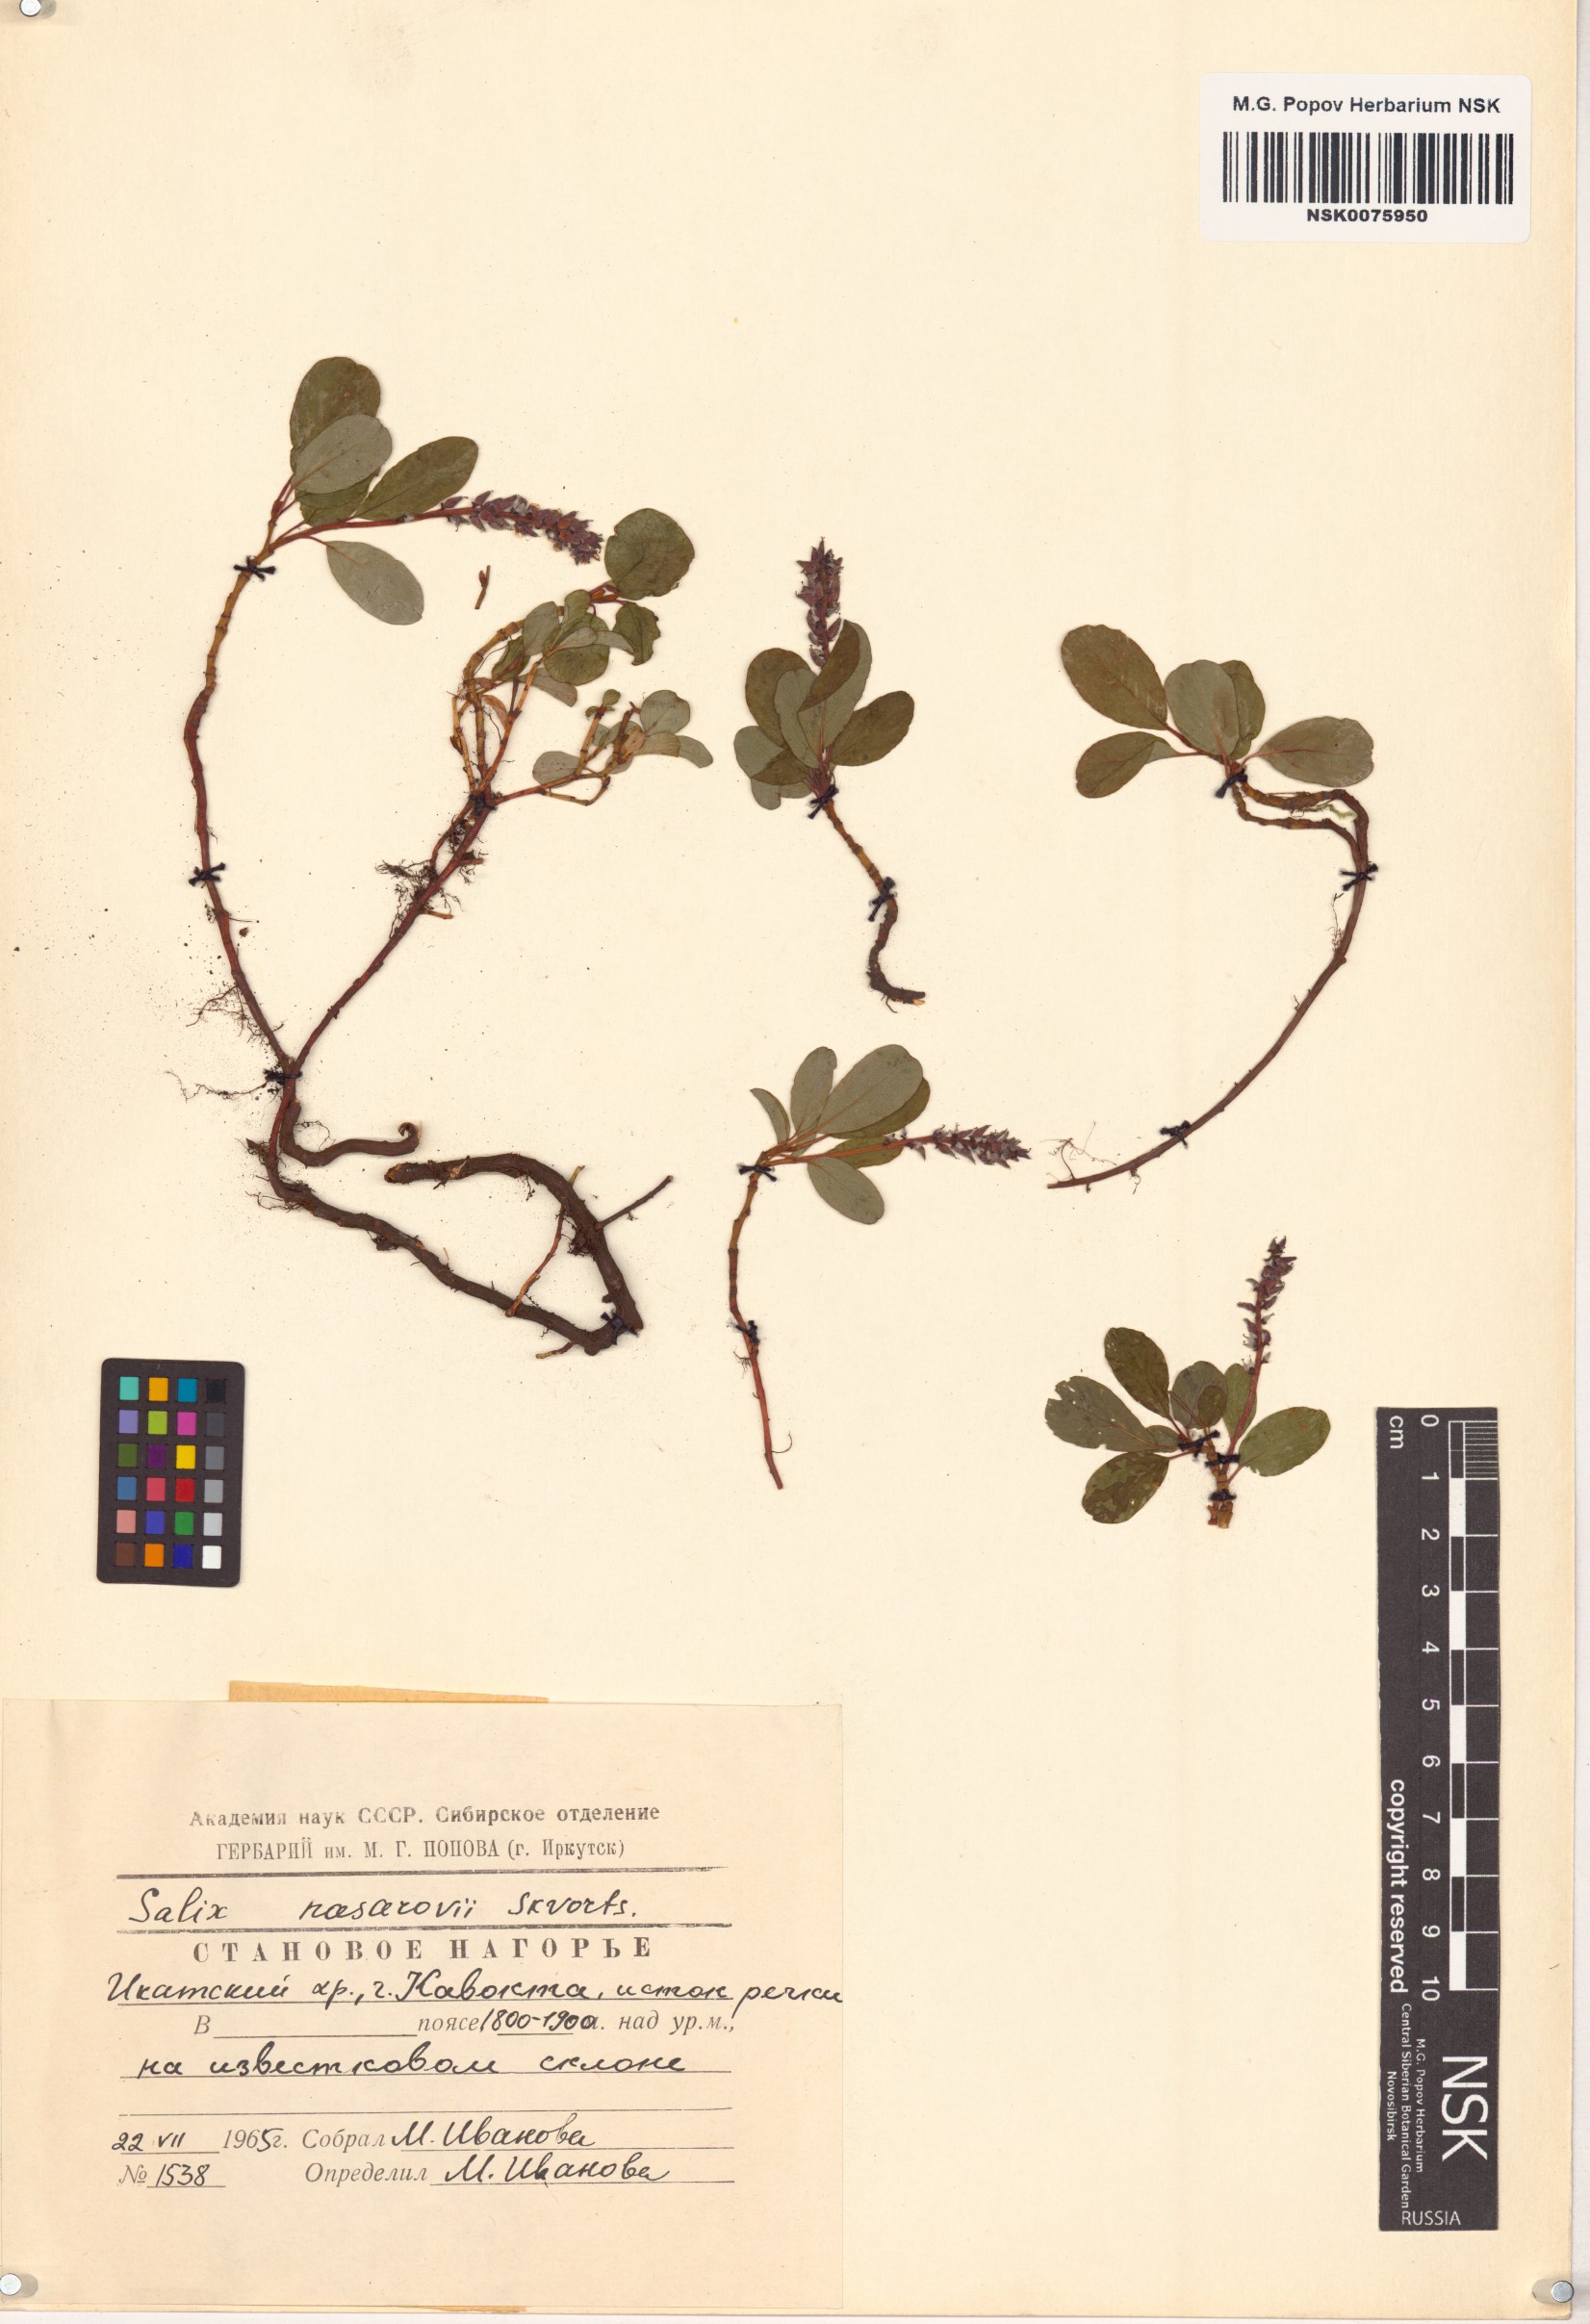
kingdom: Plantae
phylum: Tracheophyta
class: Magnoliopsida
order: Malpighiales
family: Salicaceae
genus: Salix
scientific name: Salix nasarovii
